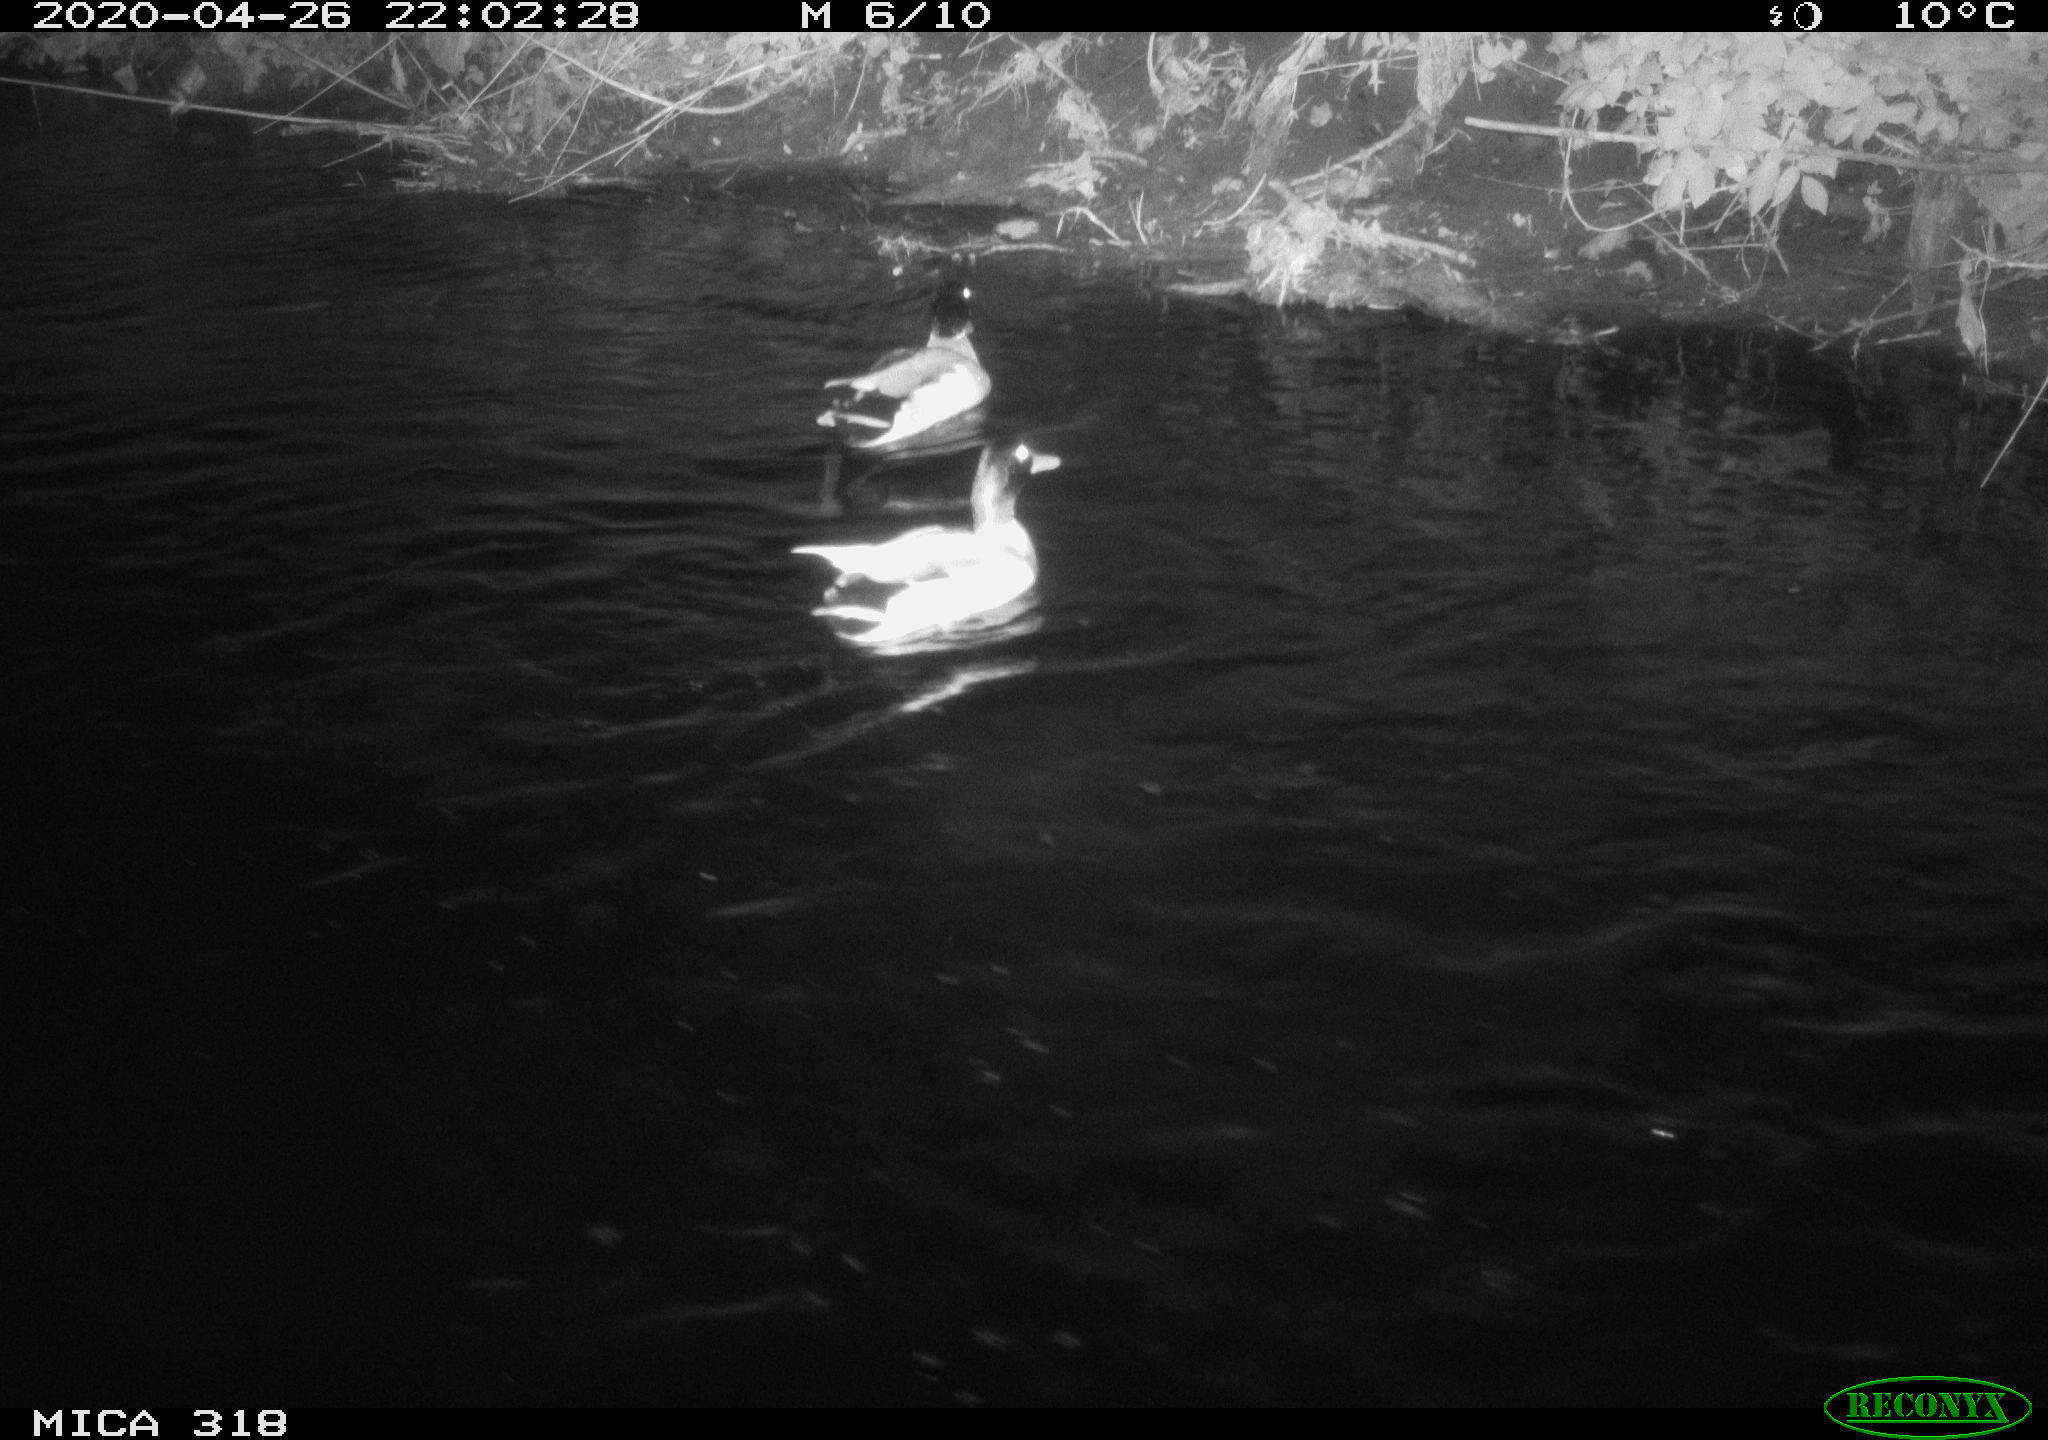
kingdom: Animalia
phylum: Chordata
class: Aves
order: Anseriformes
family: Anatidae
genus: Anas
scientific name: Anas platyrhynchos
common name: Mallard
